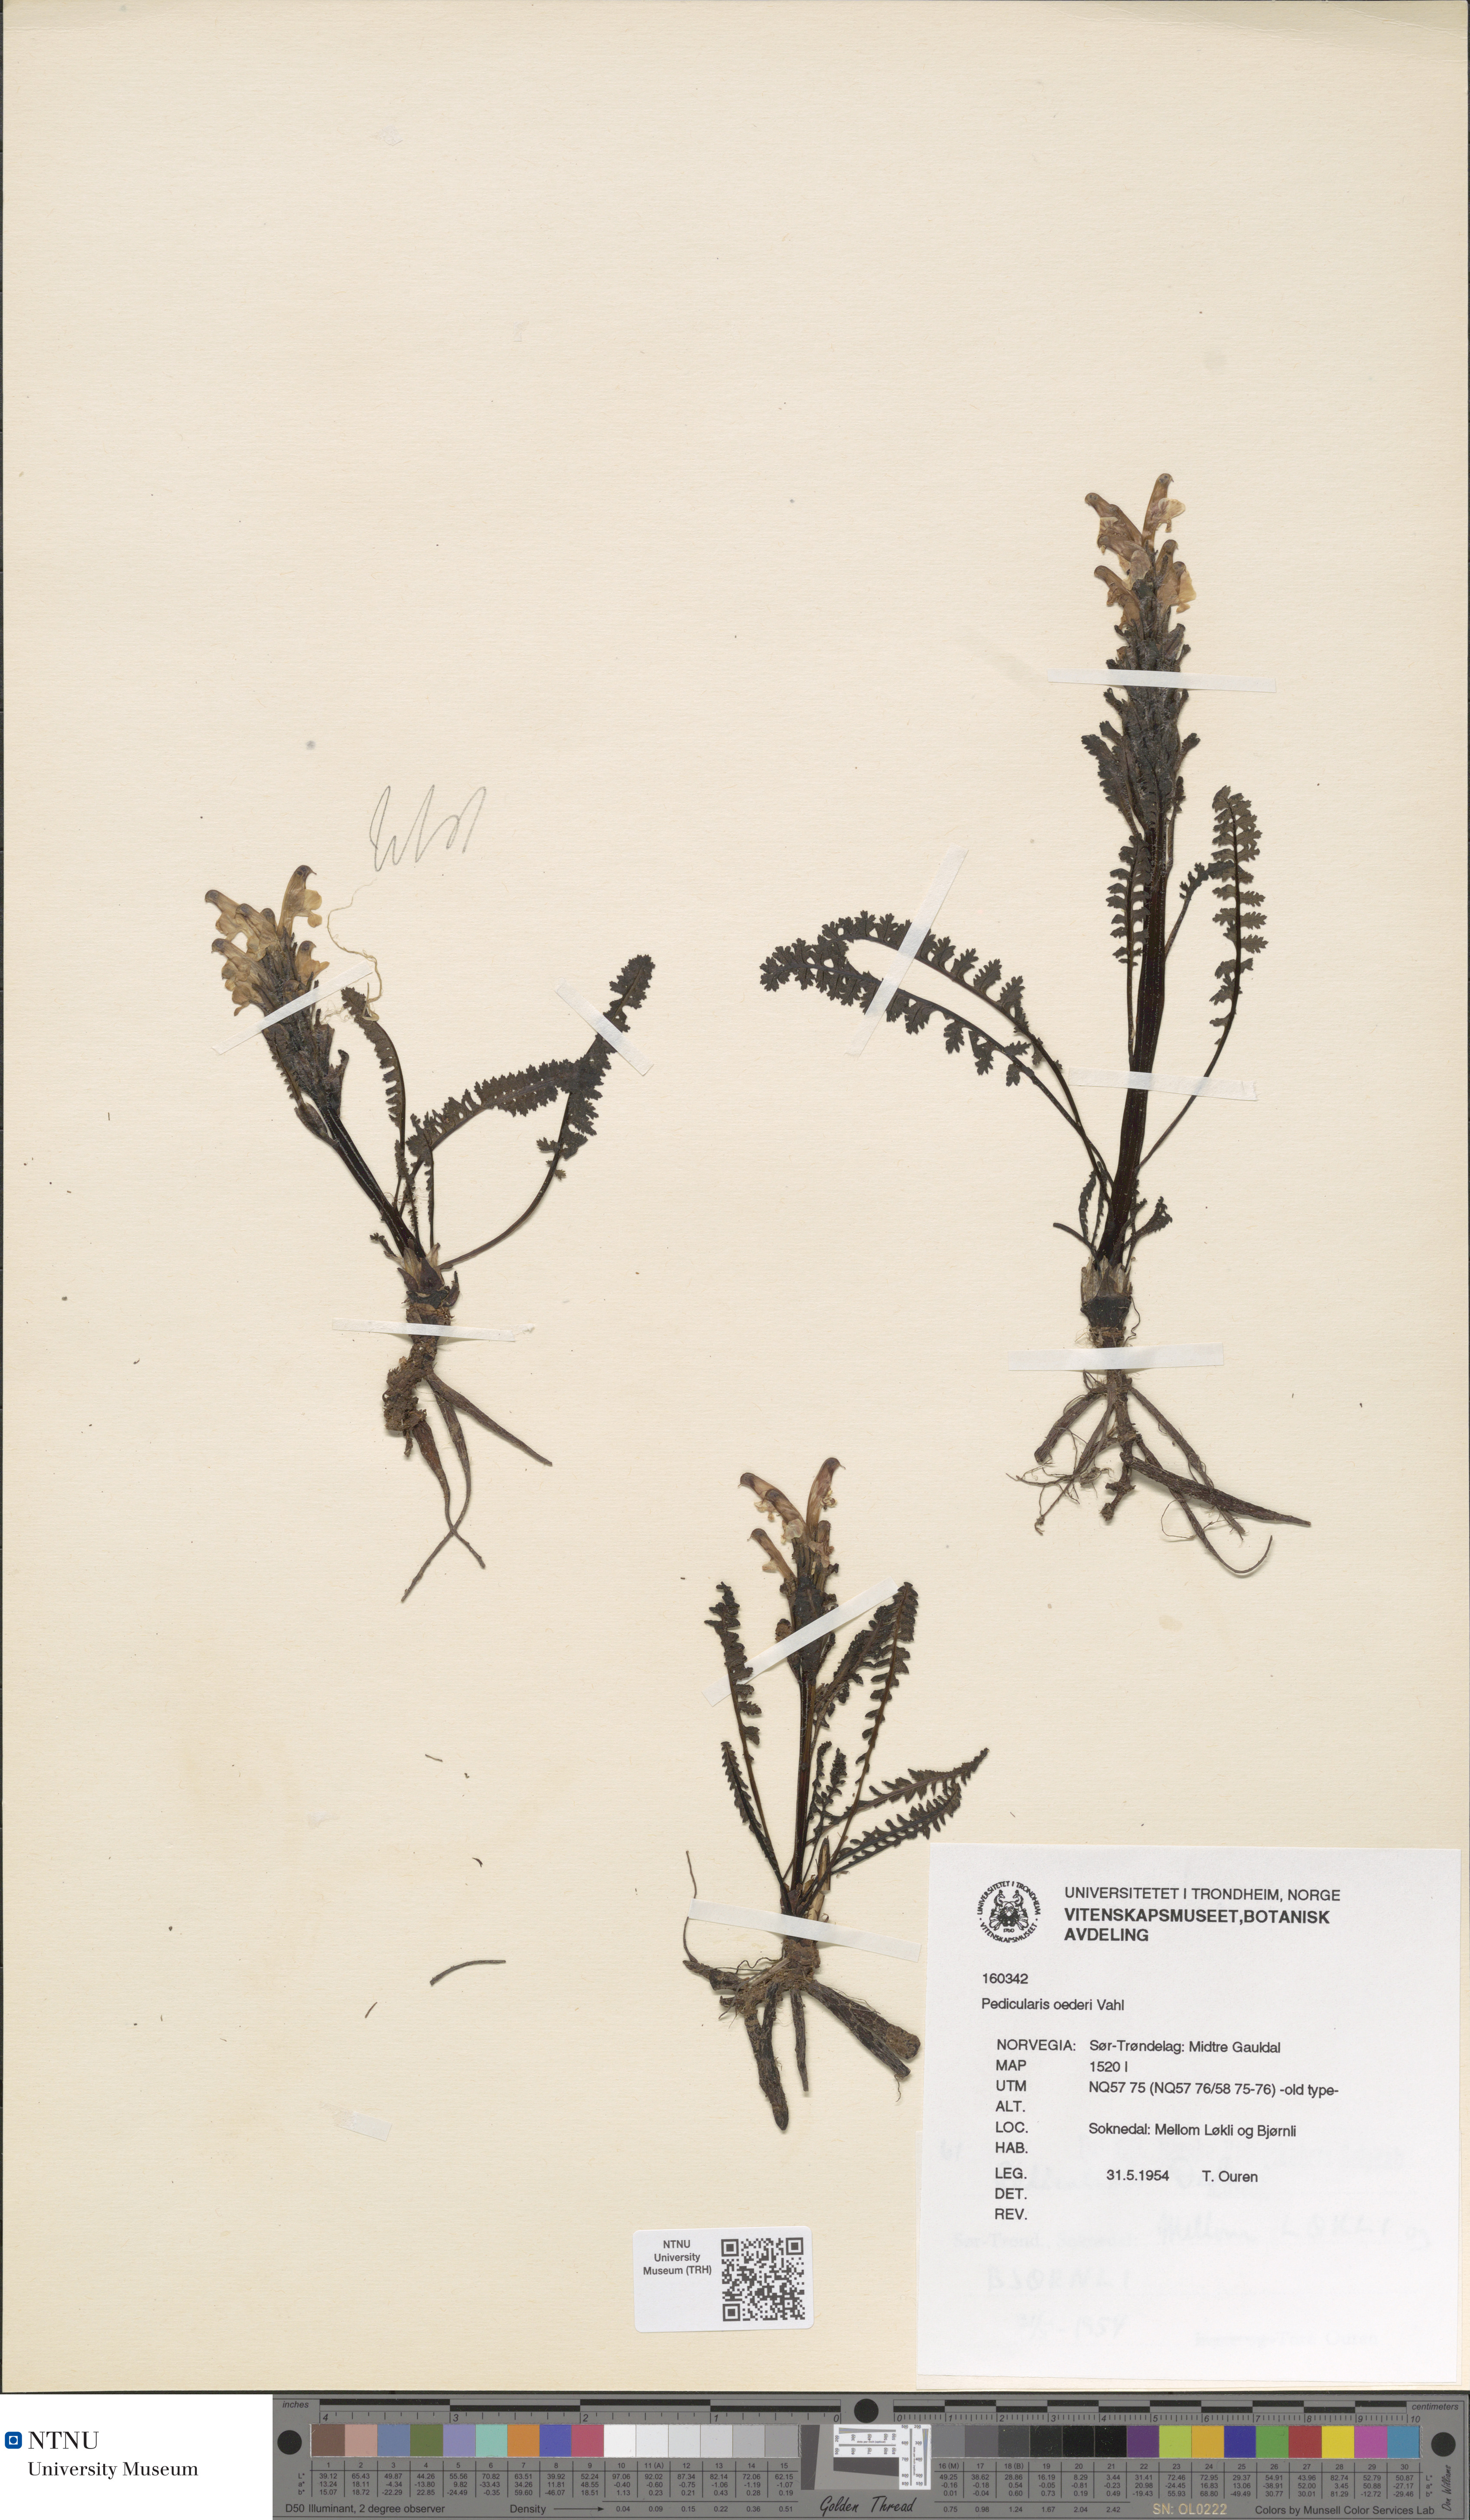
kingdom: Plantae
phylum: Tracheophyta
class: Magnoliopsida
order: Lamiales
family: Orobanchaceae
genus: Pedicularis
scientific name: Pedicularis oederi
